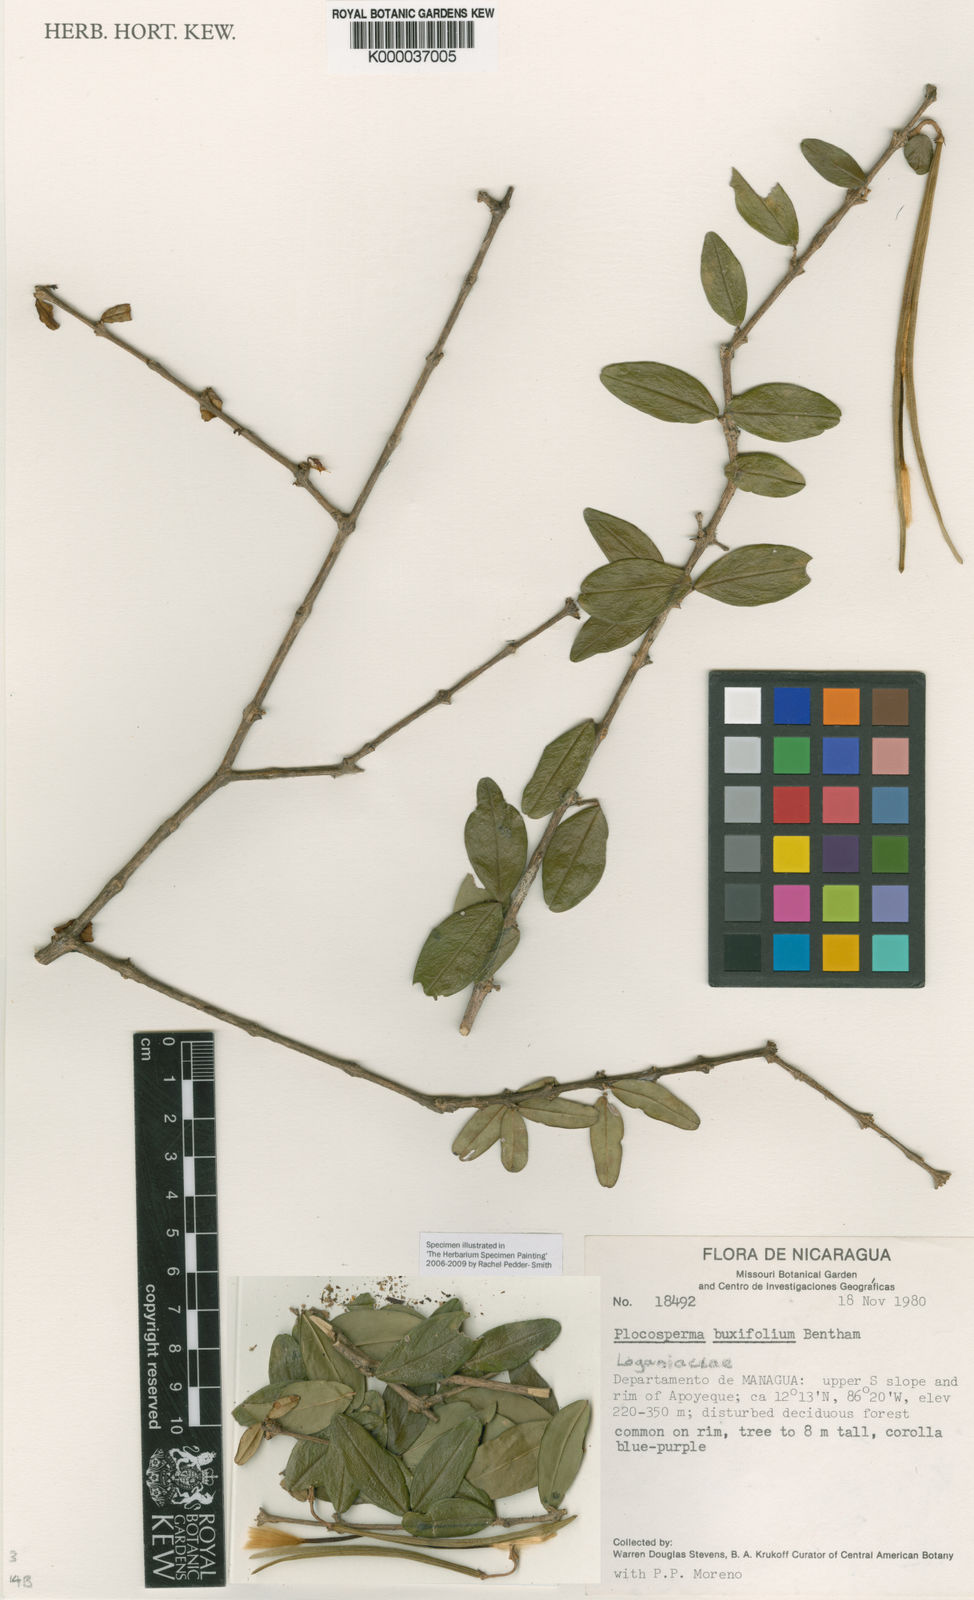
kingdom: Plantae
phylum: Tracheophyta
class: Magnoliopsida
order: Lamiales
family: Plocospermataceae
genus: Plocosperma
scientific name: Plocosperma buxifolium
